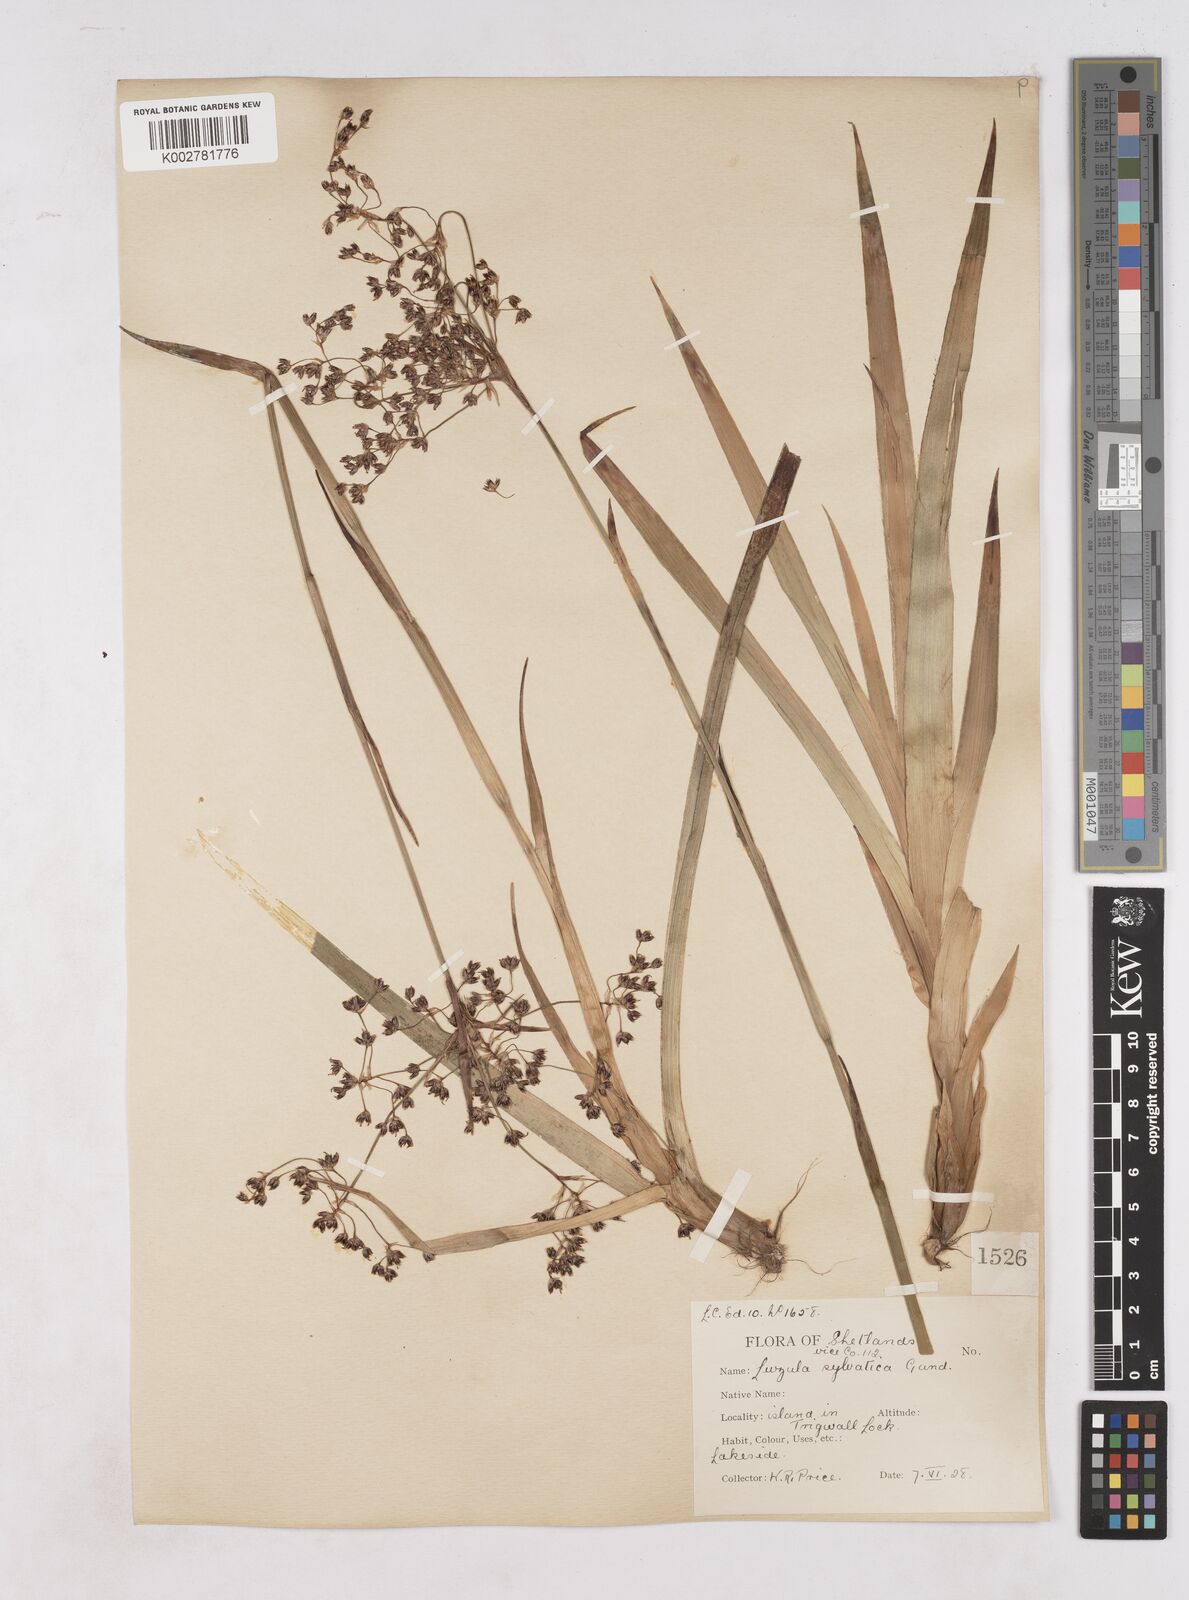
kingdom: Plantae
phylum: Tracheophyta
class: Liliopsida
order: Poales
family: Juncaceae
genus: Luzula
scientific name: Luzula sylvatica
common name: Great wood-rush
